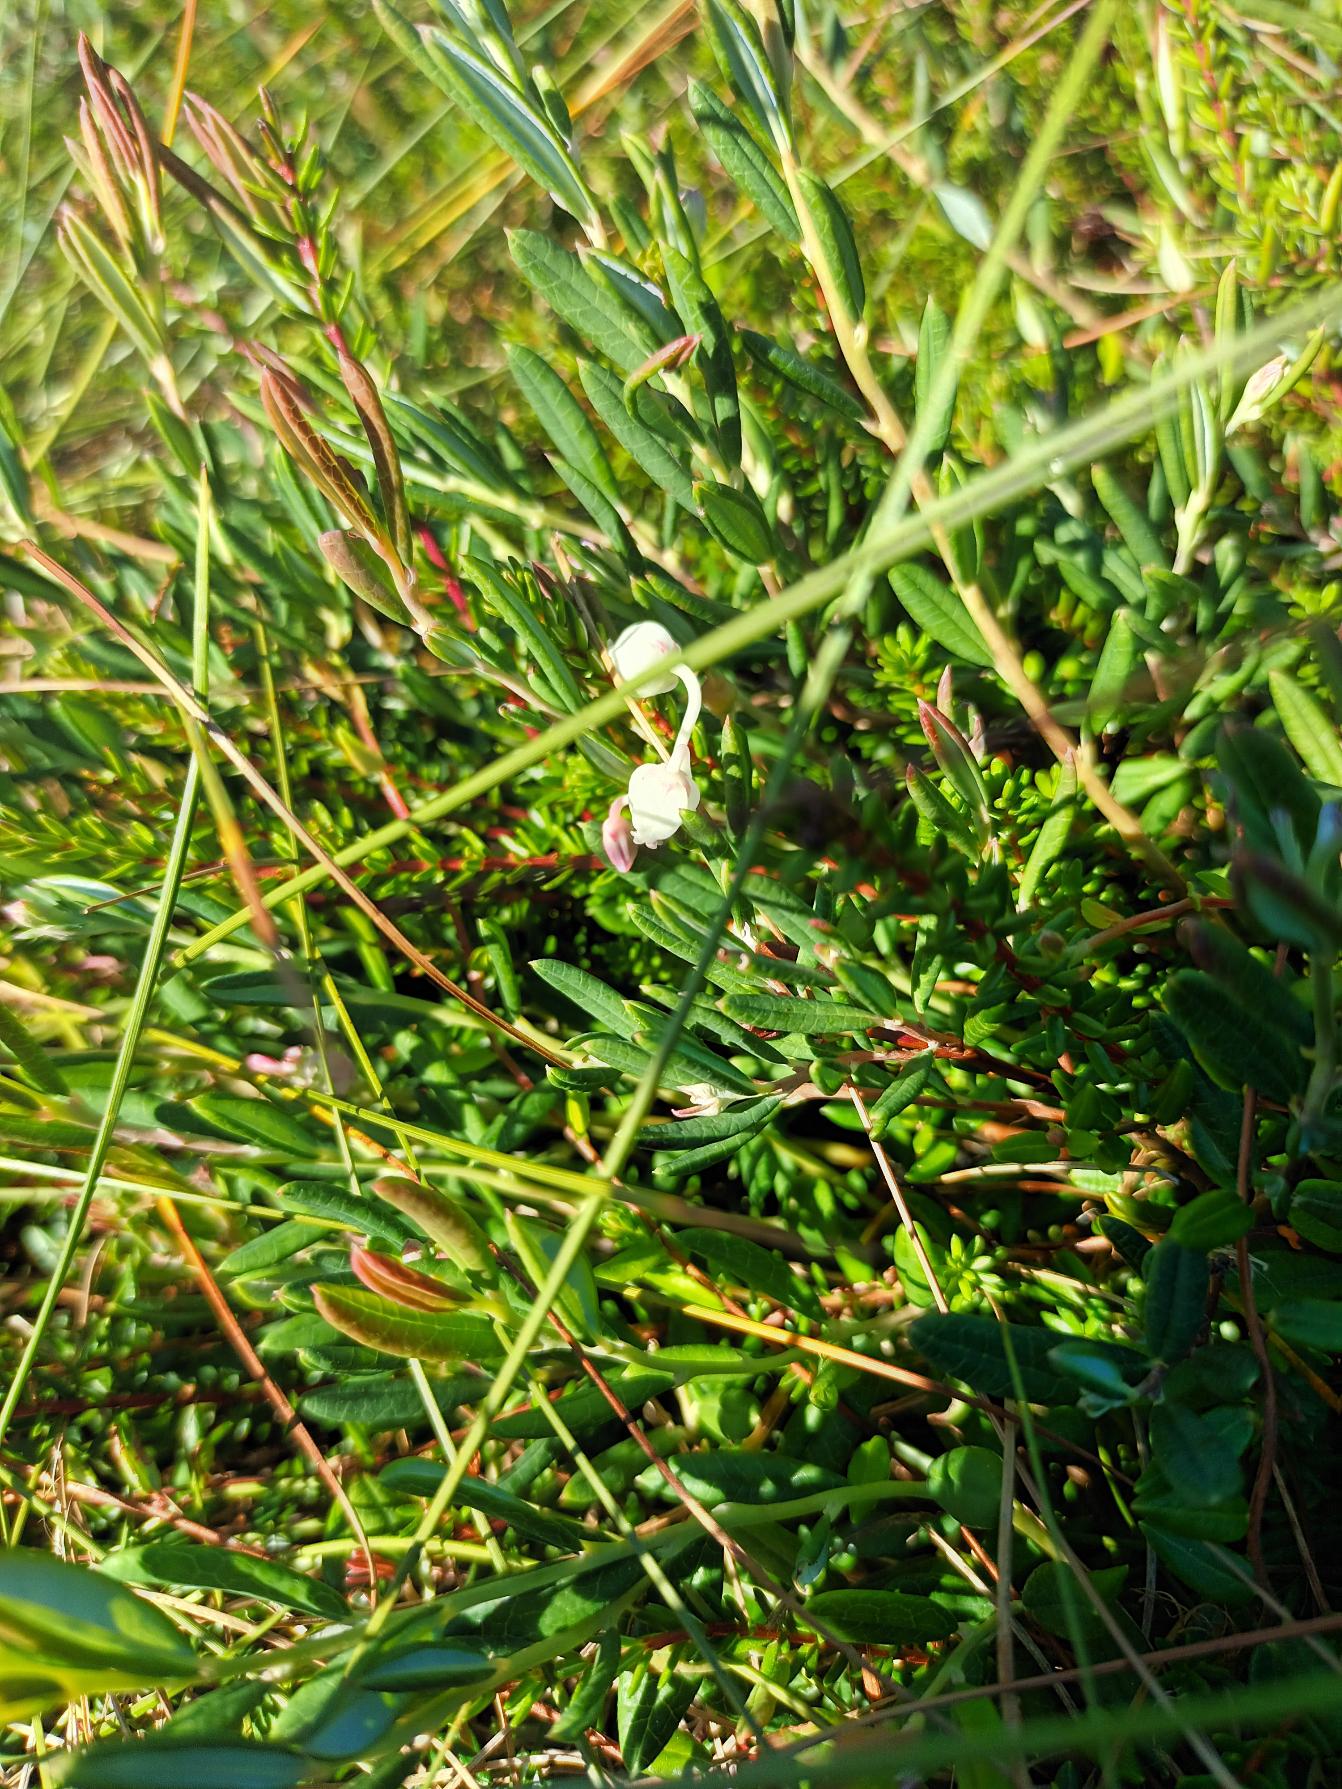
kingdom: Plantae
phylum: Tracheophyta
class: Magnoliopsida
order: Ericales
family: Ericaceae
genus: Andromeda
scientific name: Andromeda polifolia
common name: Rosmarinlyng
